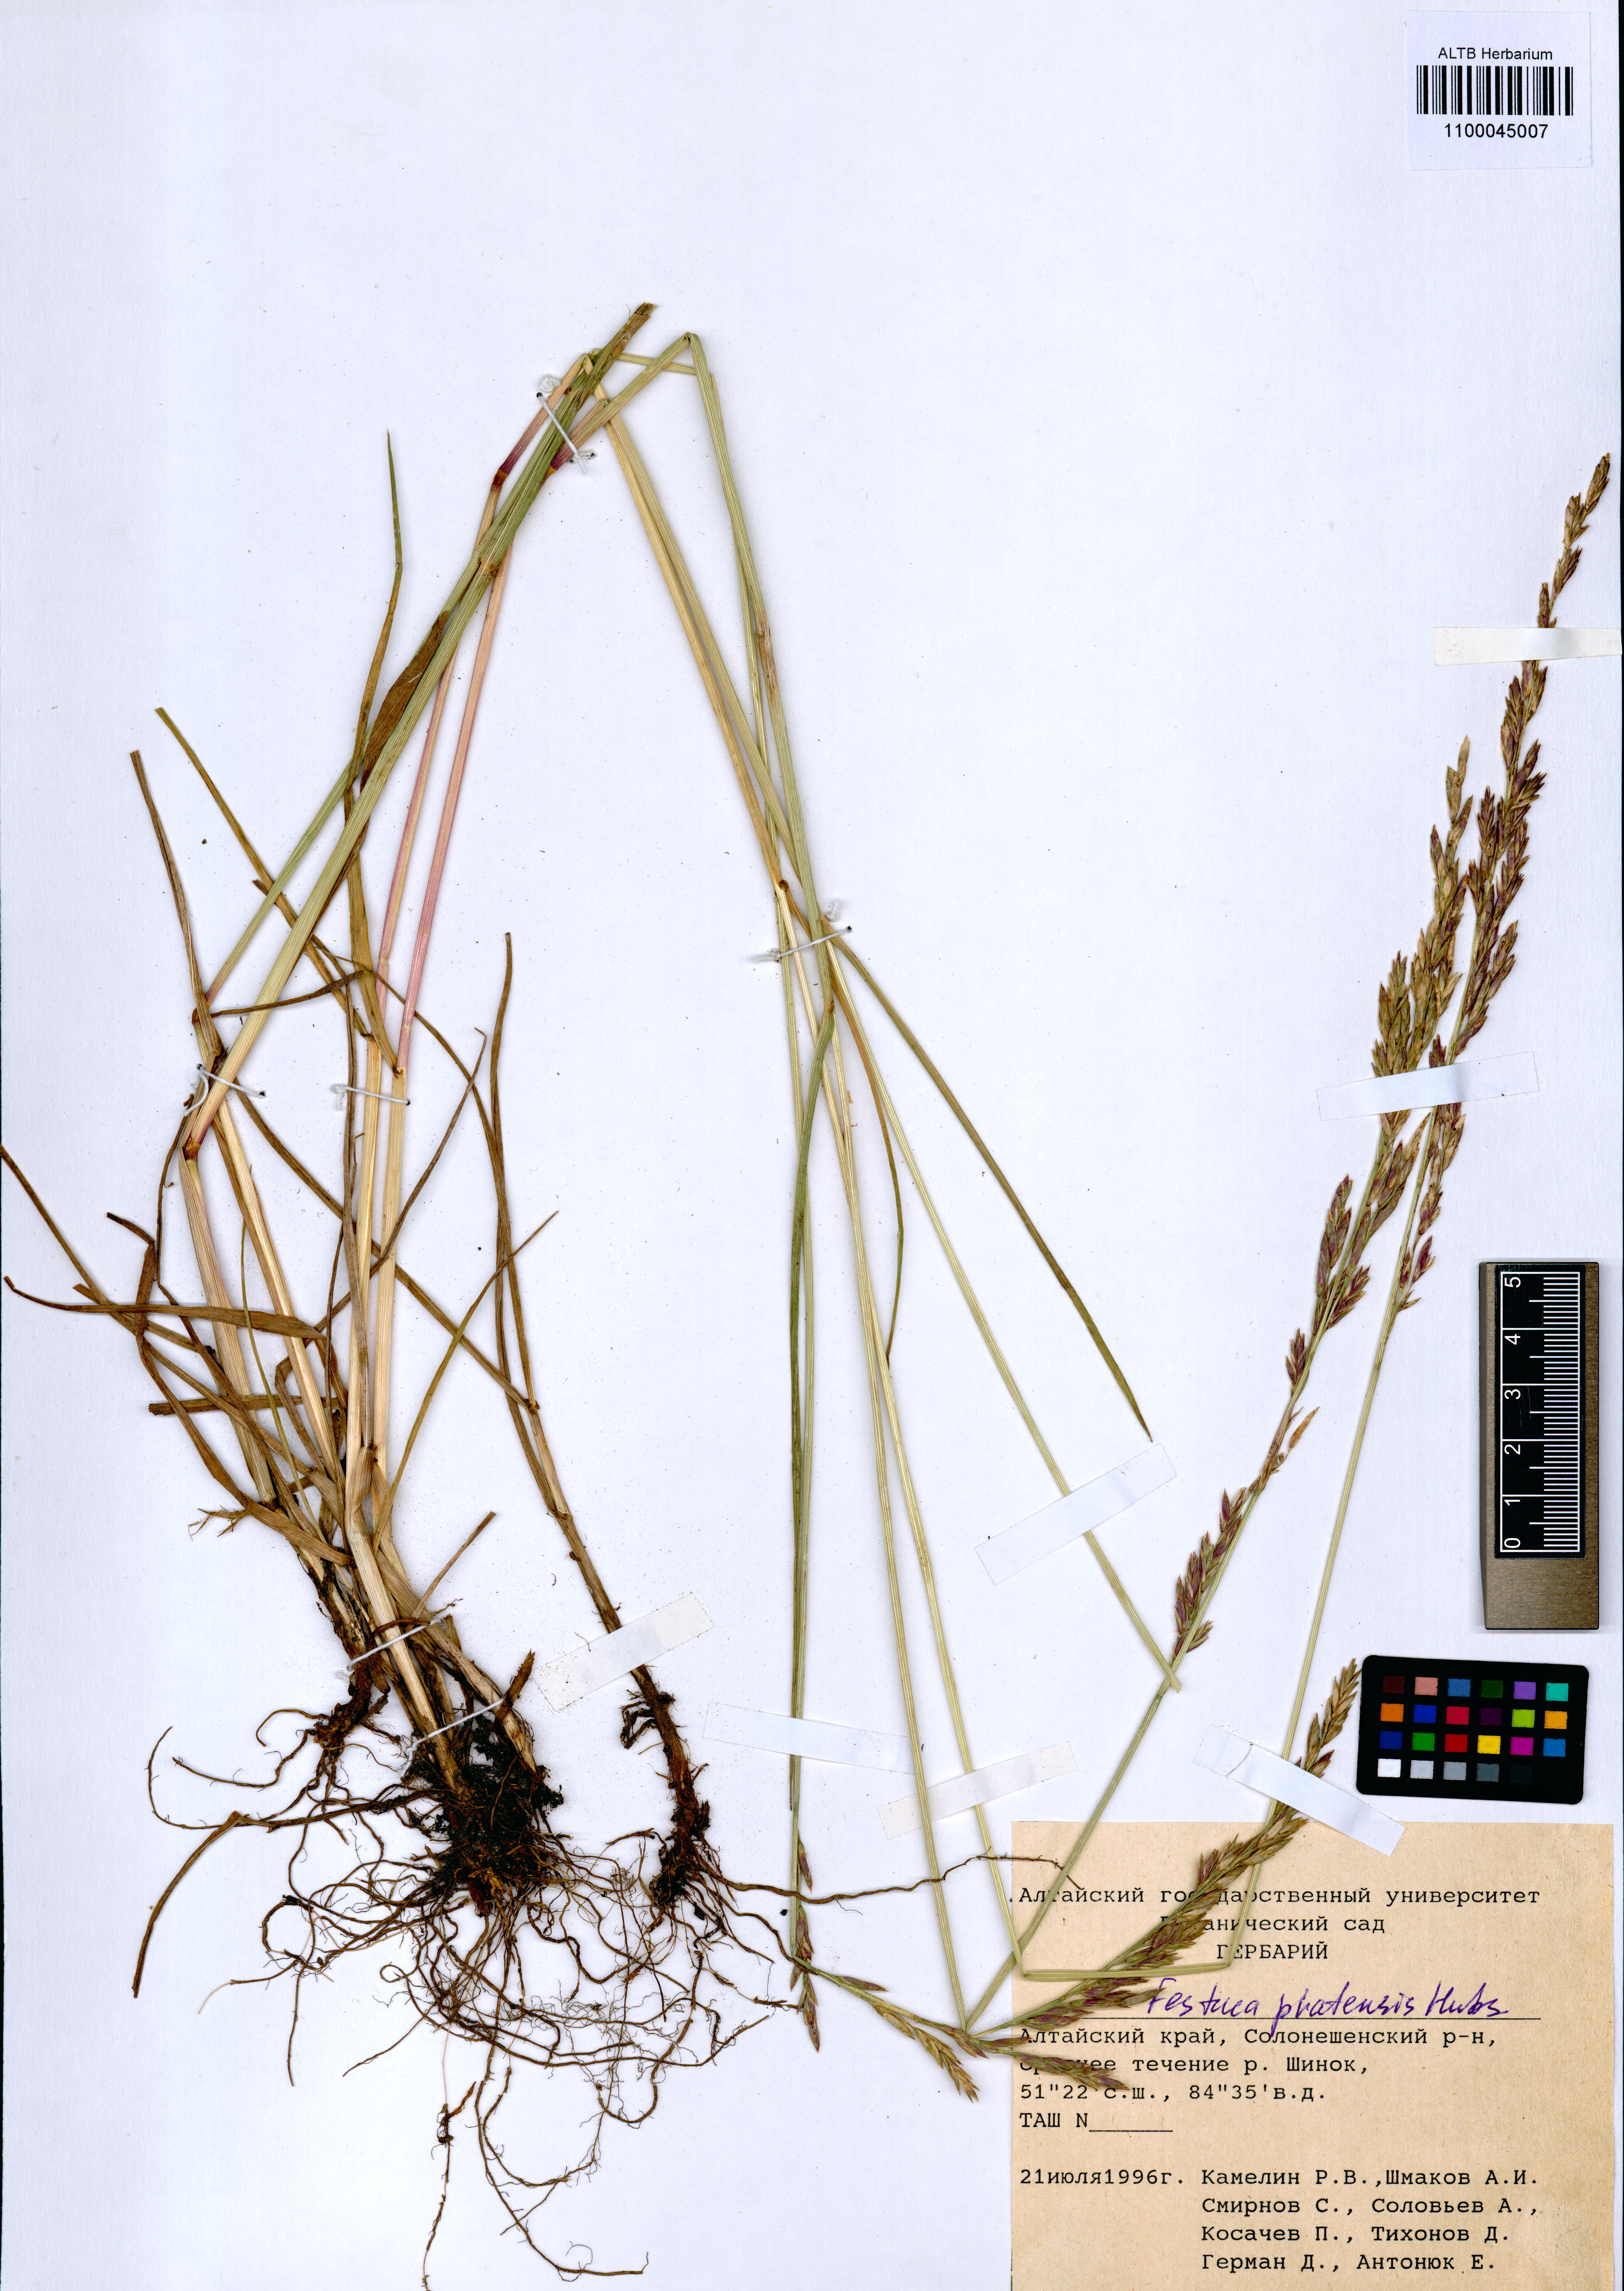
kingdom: Plantae
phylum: Tracheophyta
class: Liliopsida
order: Poales
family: Poaceae
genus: Lolium
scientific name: Lolium pratense
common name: Dover grass
